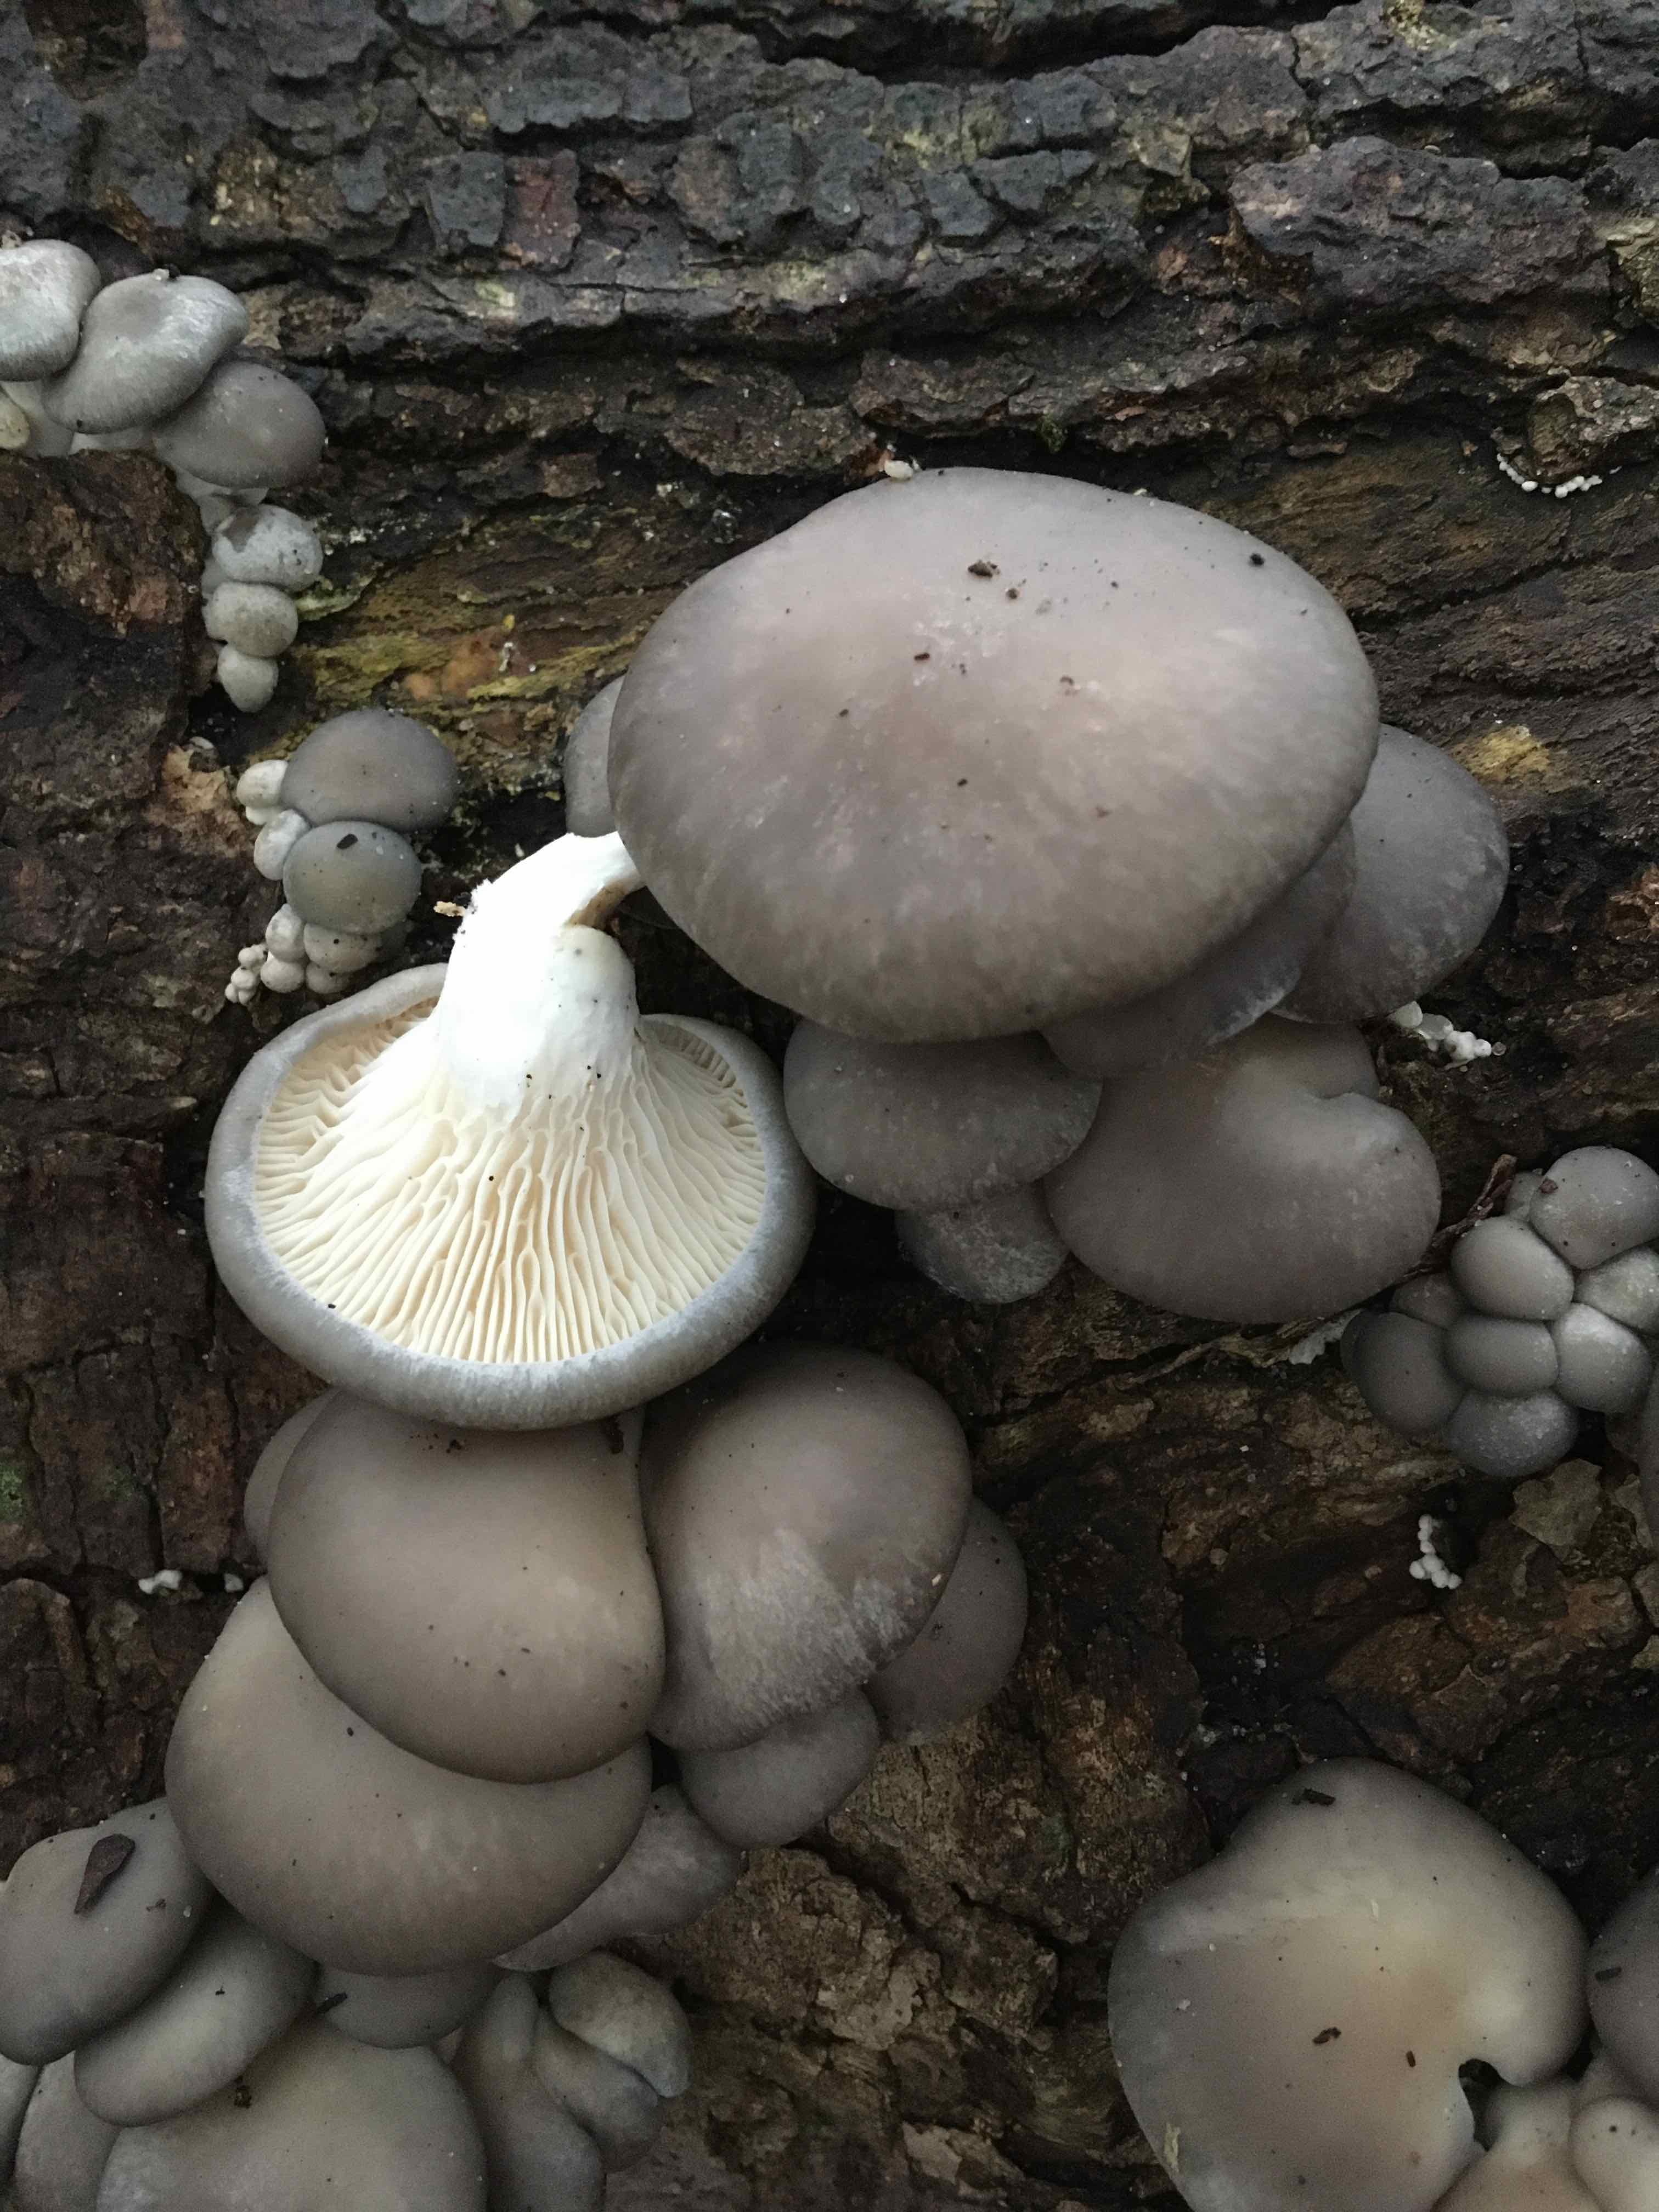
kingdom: Fungi
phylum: Basidiomycota
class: Agaricomycetes
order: Agaricales
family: Pleurotaceae
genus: Pleurotus
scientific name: Pleurotus ostreatus
